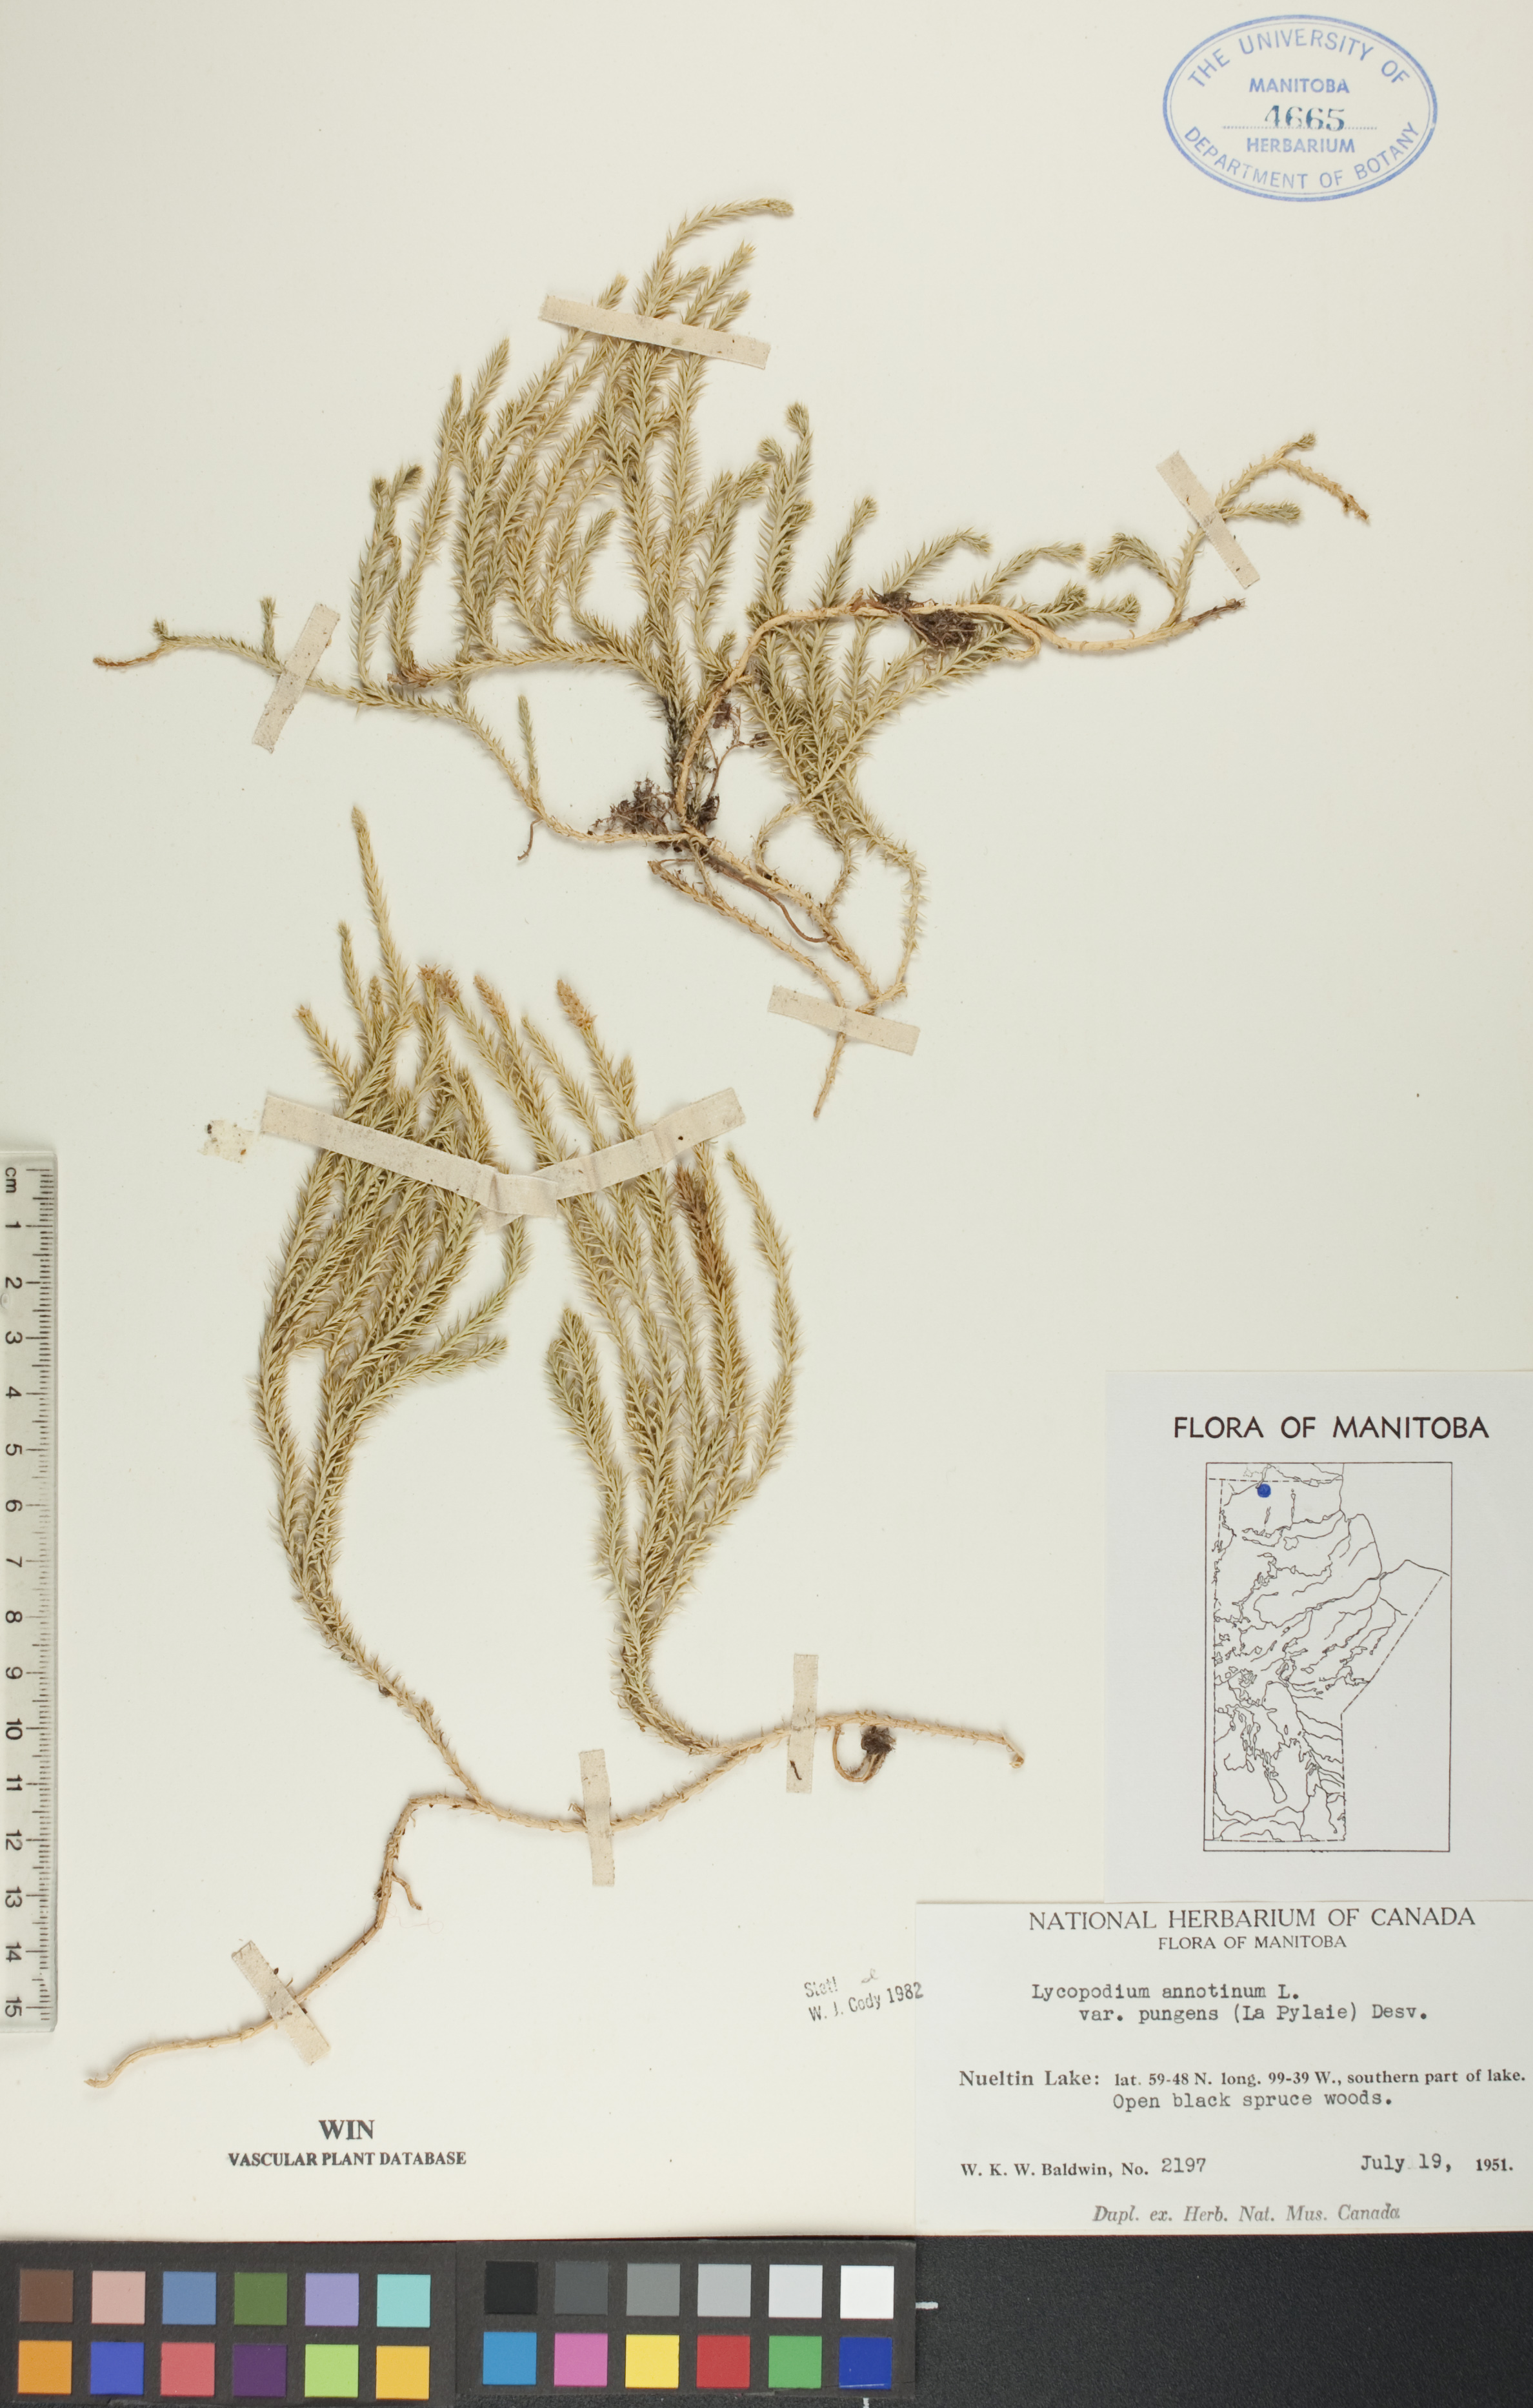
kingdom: Plantae
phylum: Tracheophyta
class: Lycopodiopsida
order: Lycopodiales
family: Lycopodiaceae
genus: Spinulum
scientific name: Spinulum annotinum
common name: Interrupted club-moss
